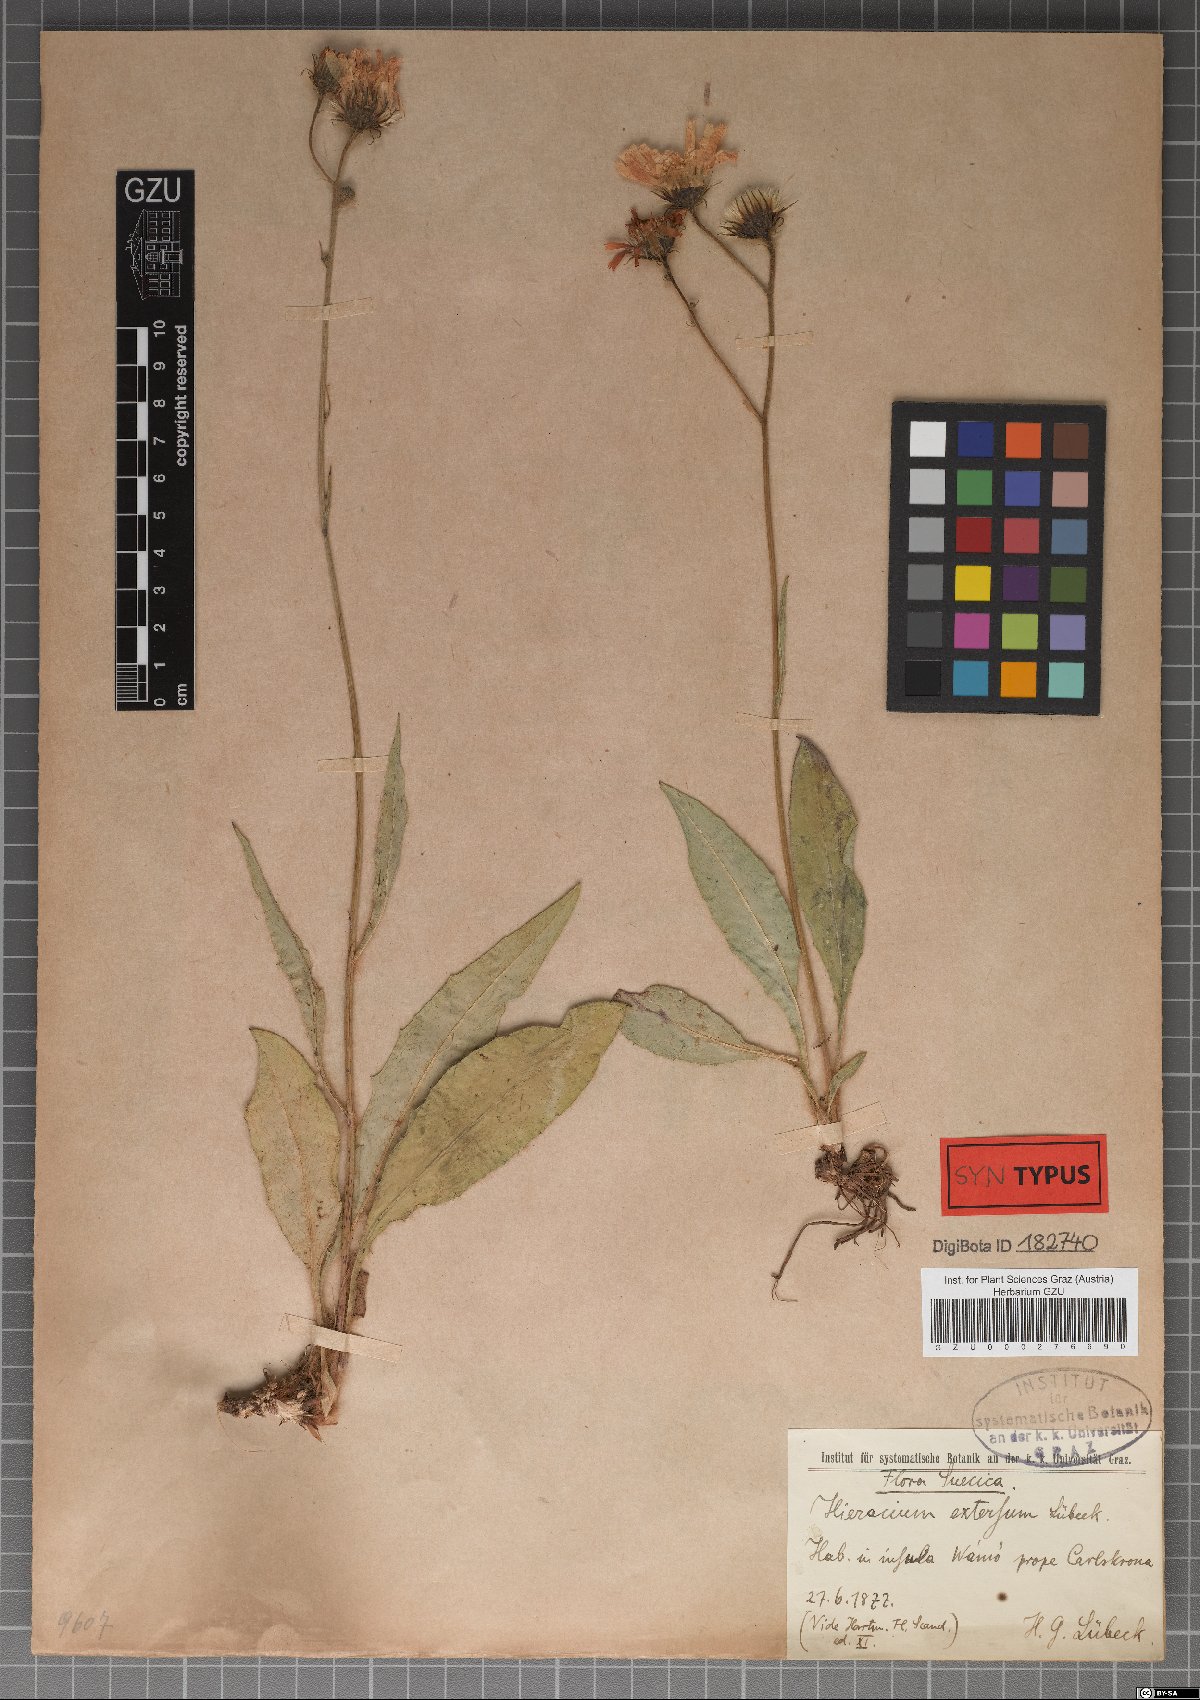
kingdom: Plantae
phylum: Tracheophyta
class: Magnoliopsida
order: Asterales
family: Asteraceae
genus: Hieracium
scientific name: Hieracium extensum
